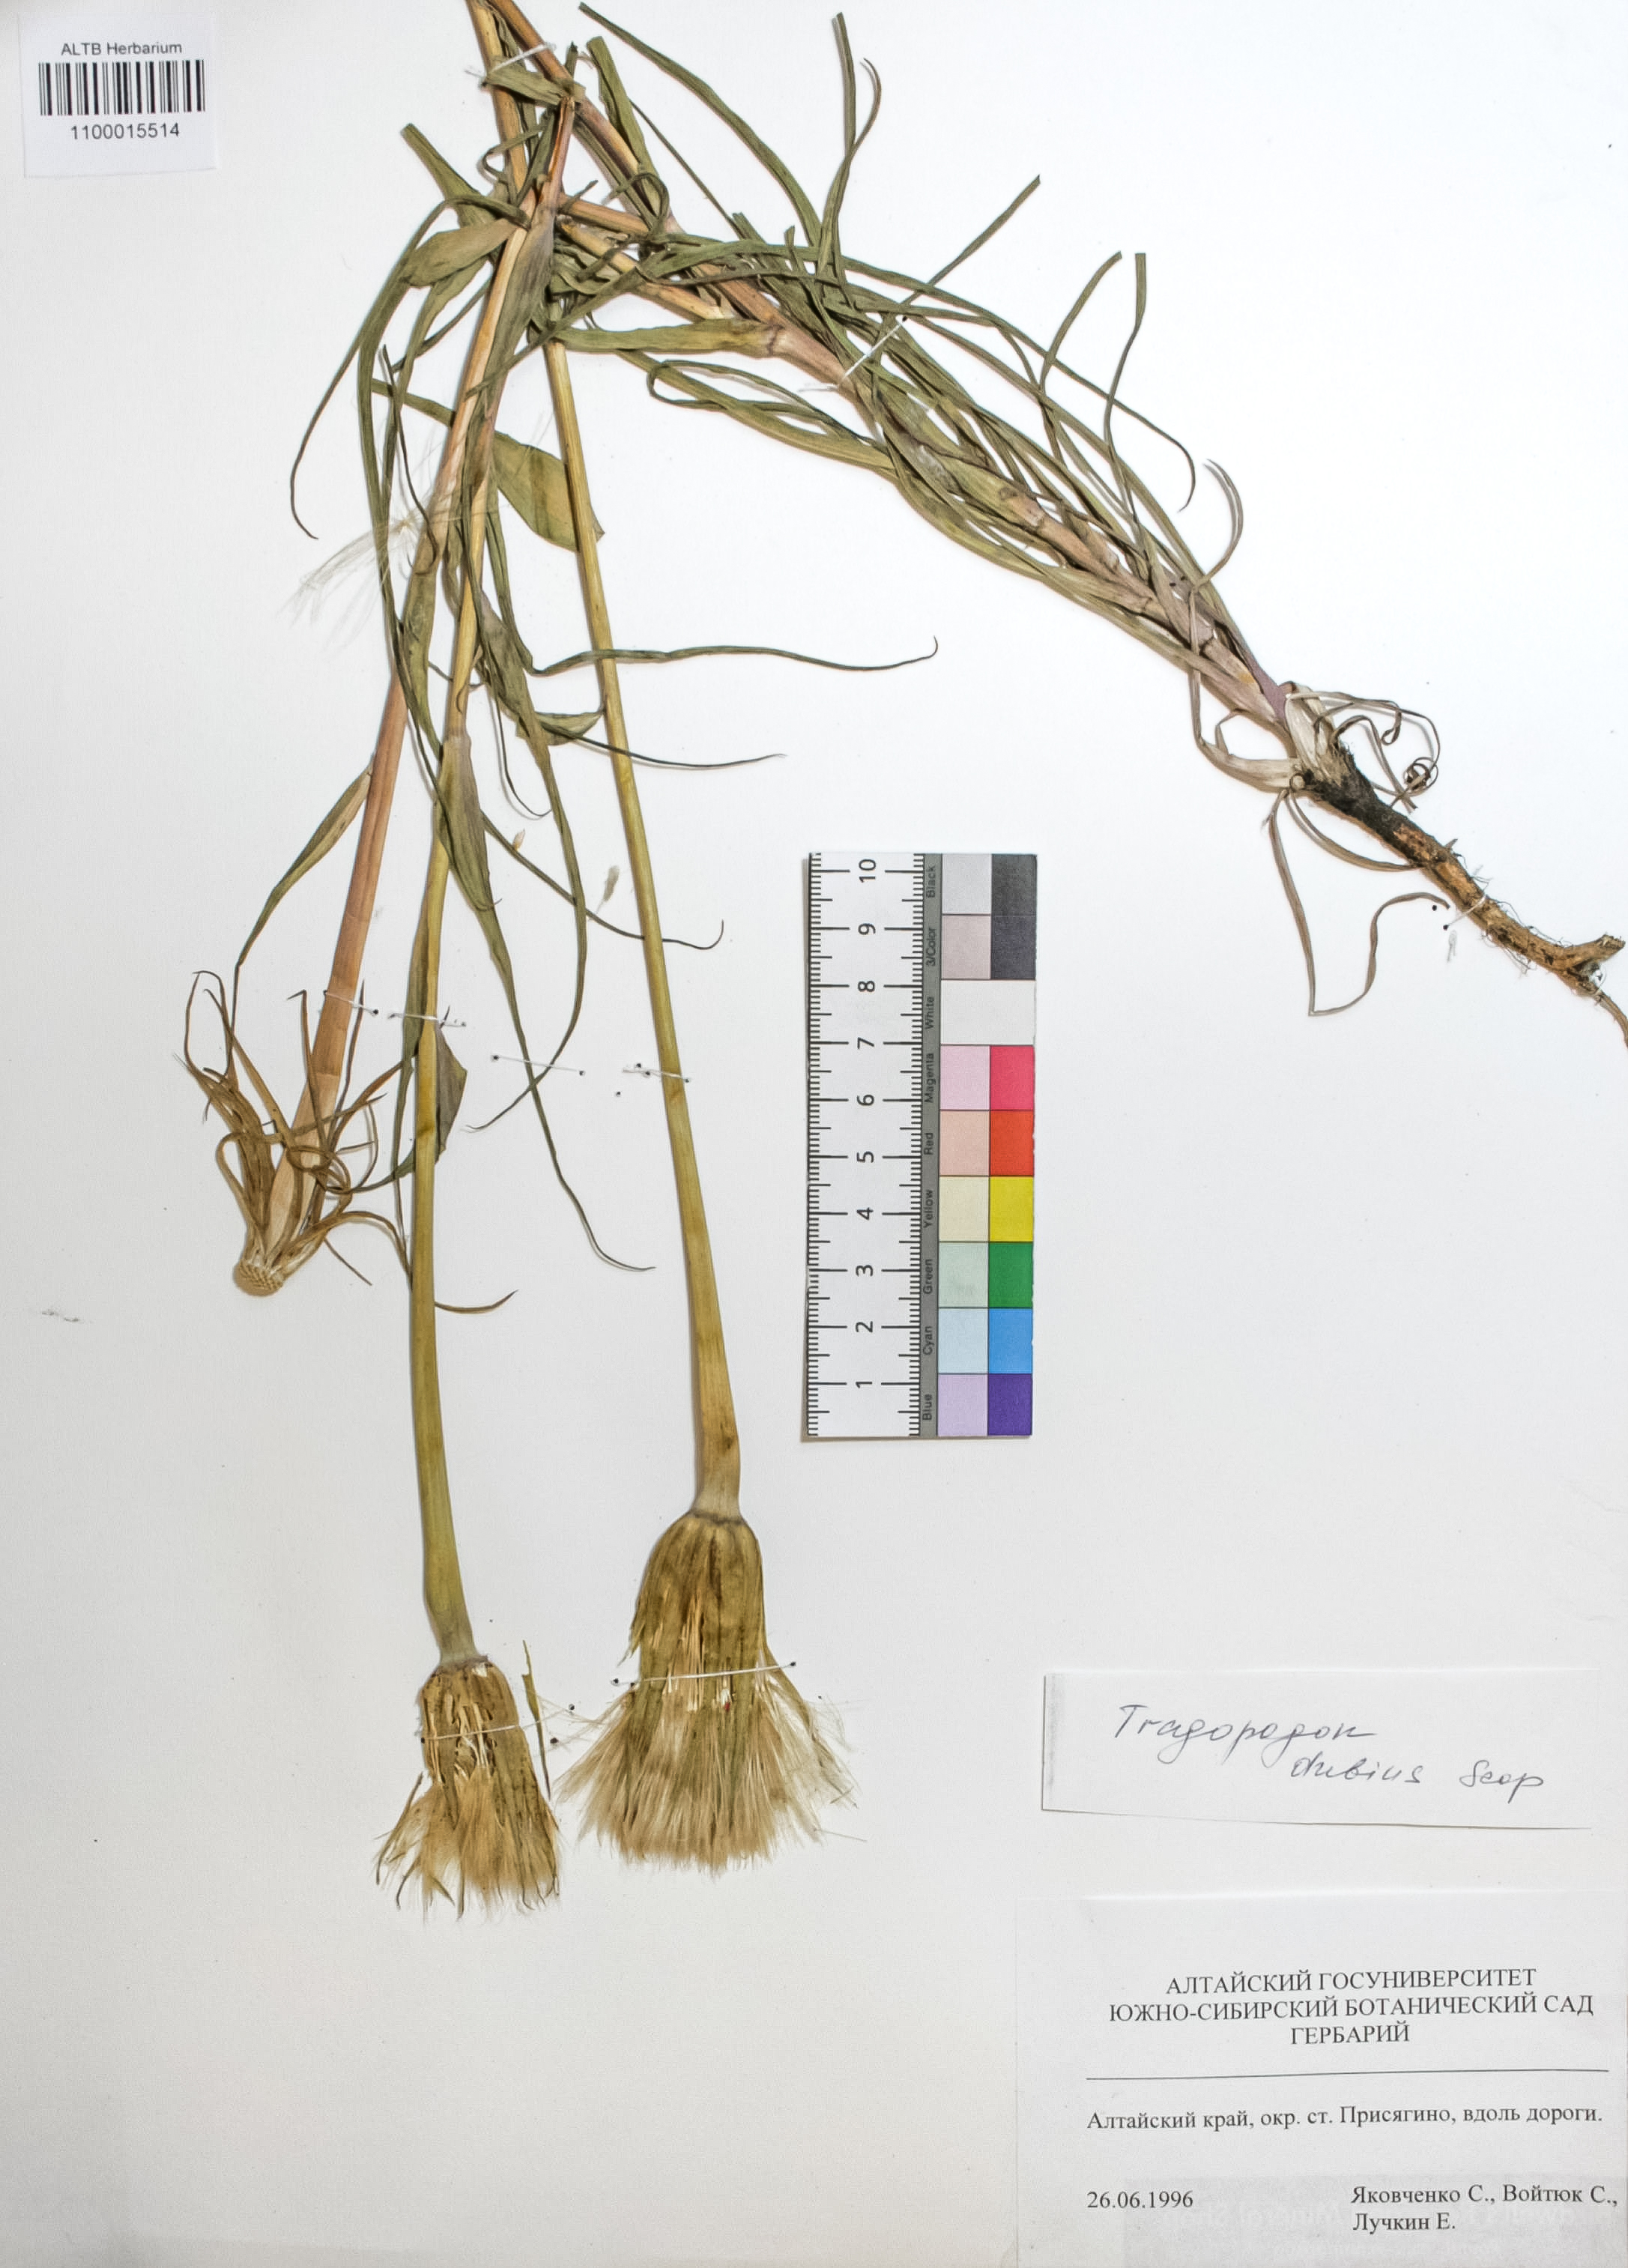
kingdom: Plantae
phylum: Tracheophyta
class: Magnoliopsida
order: Asterales
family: Asteraceae
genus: Tragopogon
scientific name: Tragopogon dubius
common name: Yellow salsify
